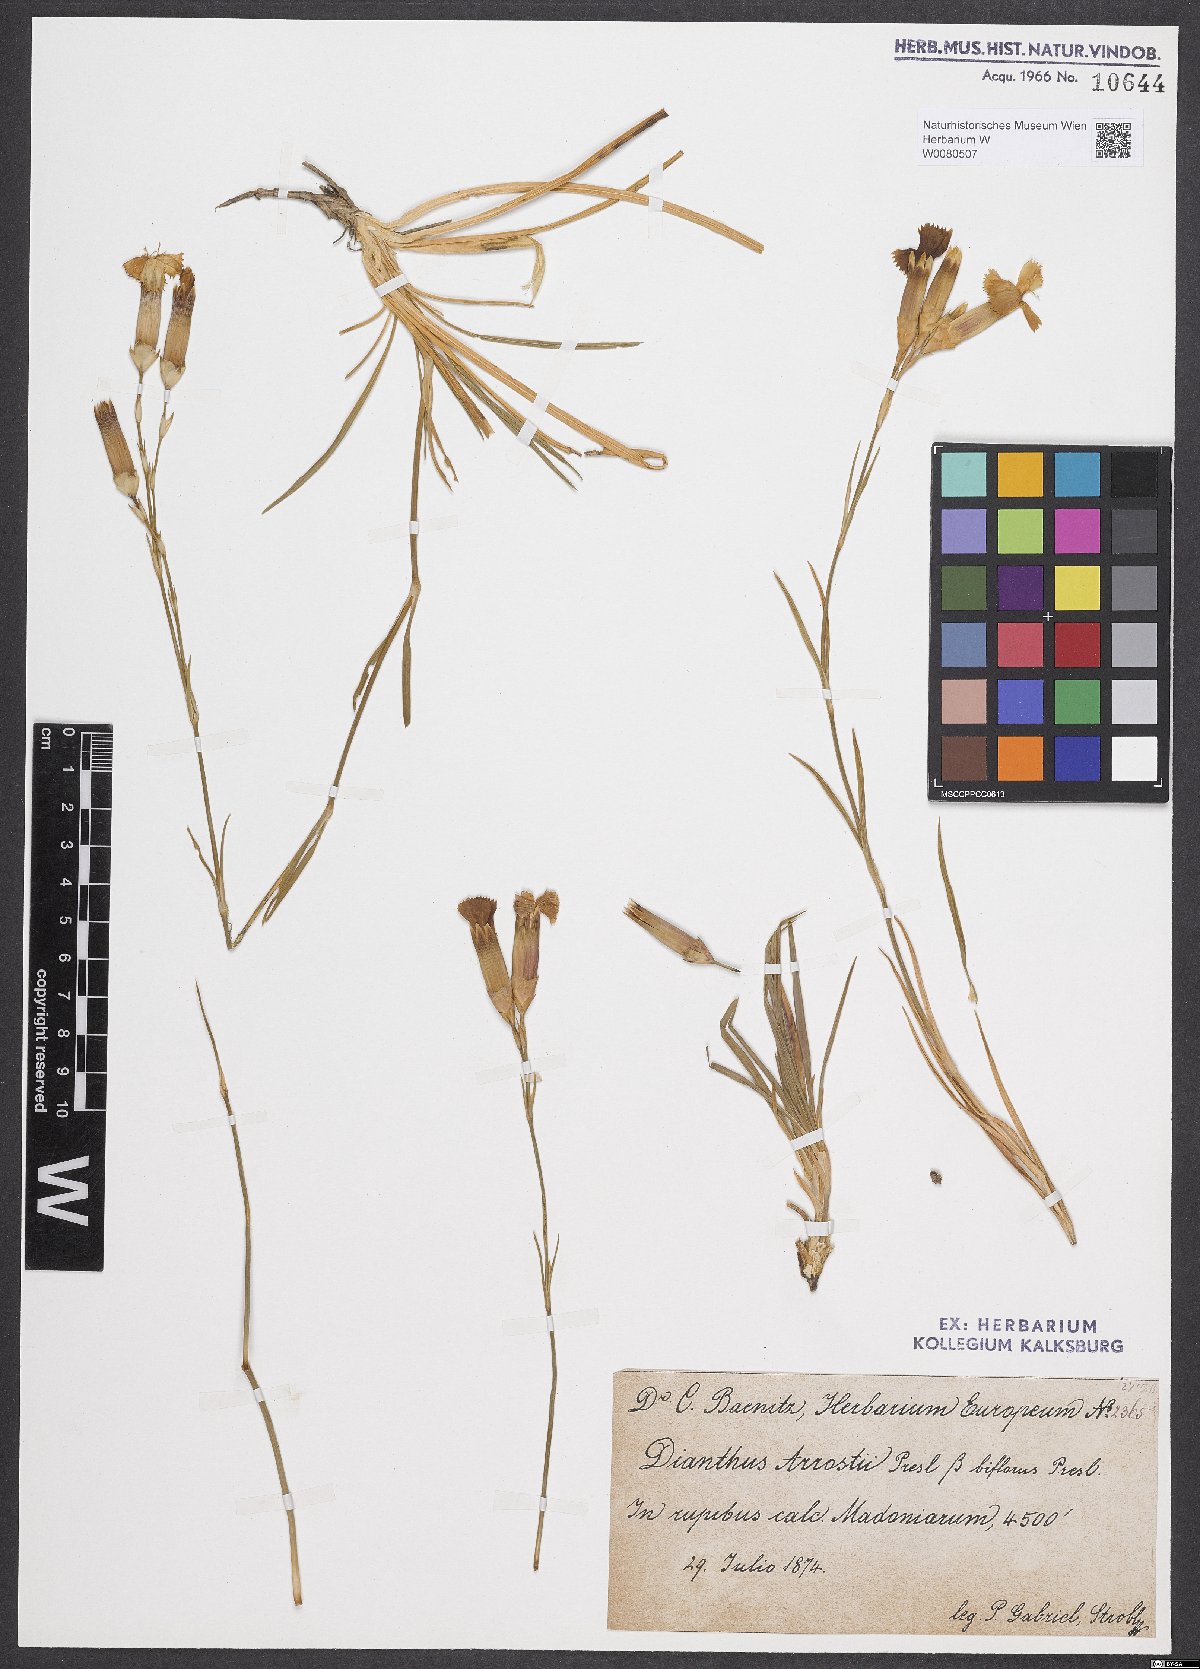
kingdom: Plantae
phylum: Tracheophyta
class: Magnoliopsida
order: Caryophyllales
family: Caryophyllaceae
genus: Dianthus
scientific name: Dianthus arrostii
